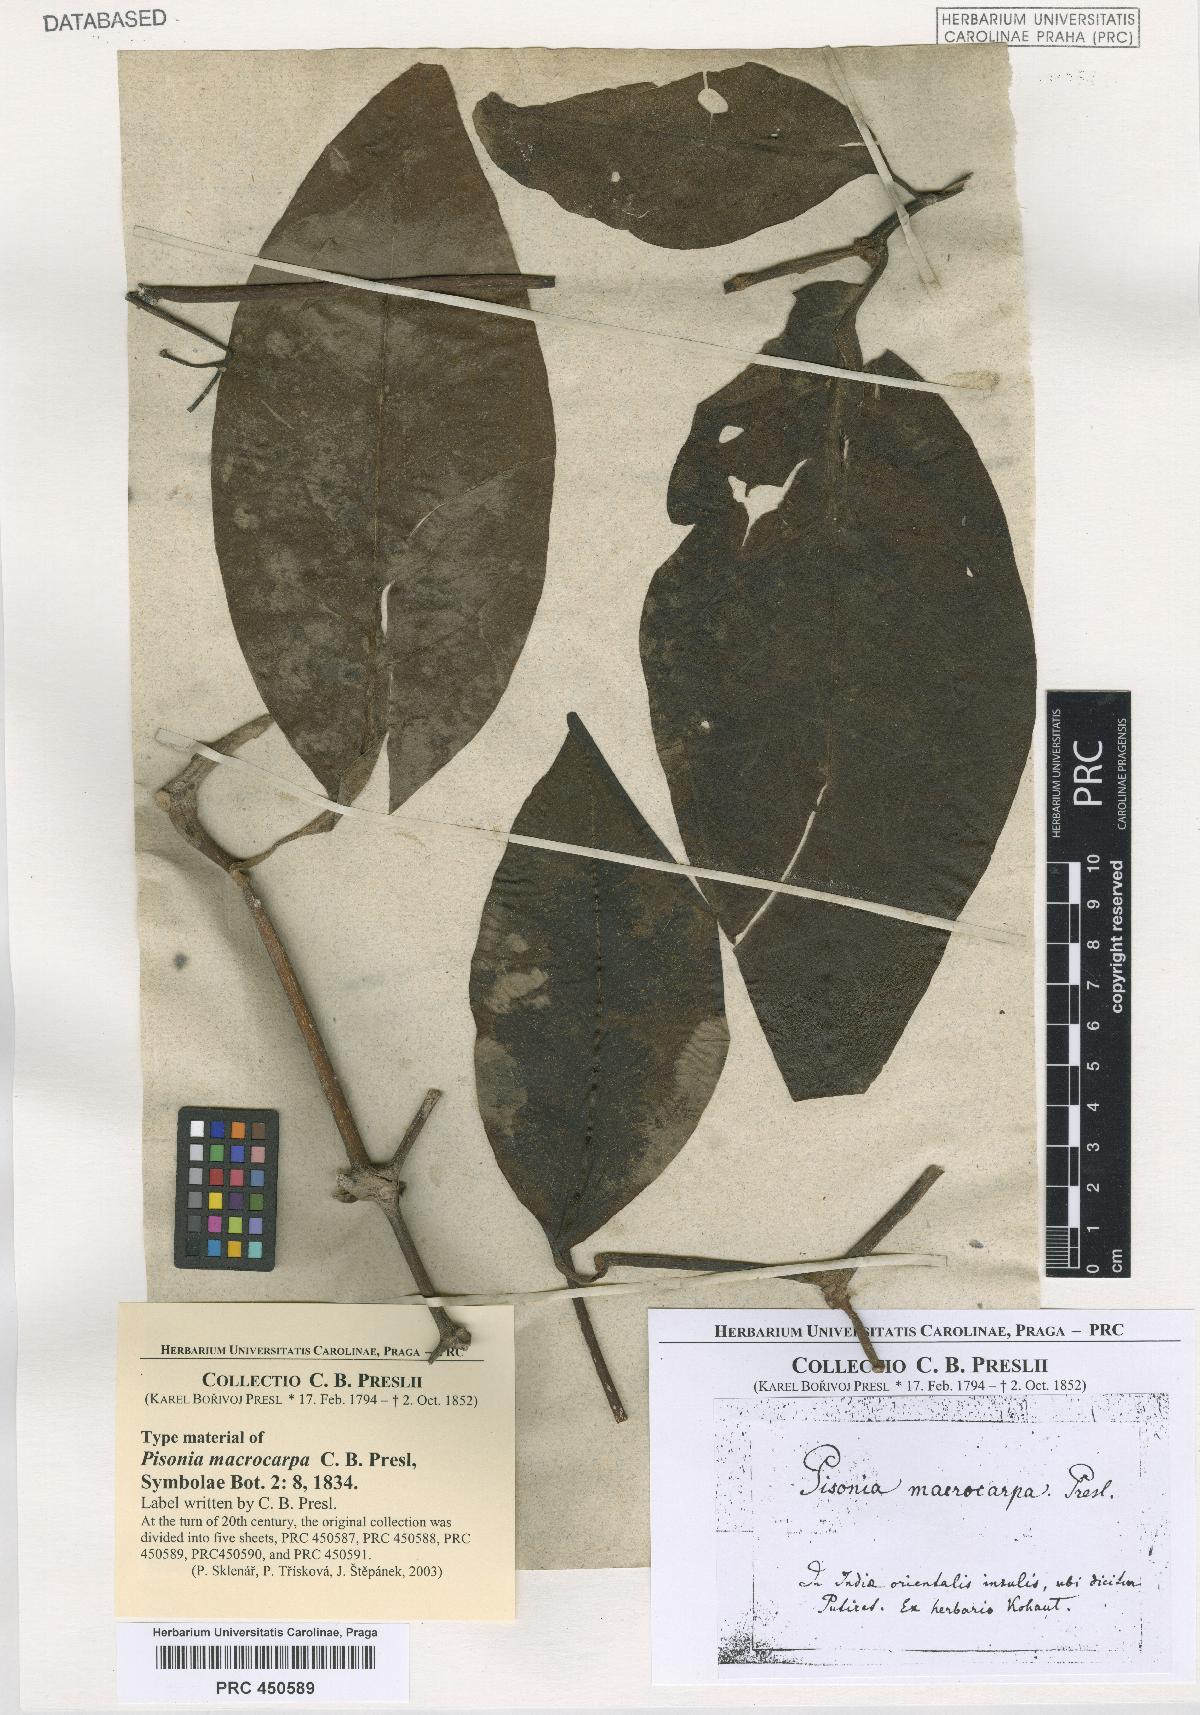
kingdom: Plantae
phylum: Tracheophyta
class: Magnoliopsida
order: Caryophyllales
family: Nyctaginaceae
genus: Ceodes
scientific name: Ceodes umbellifera
